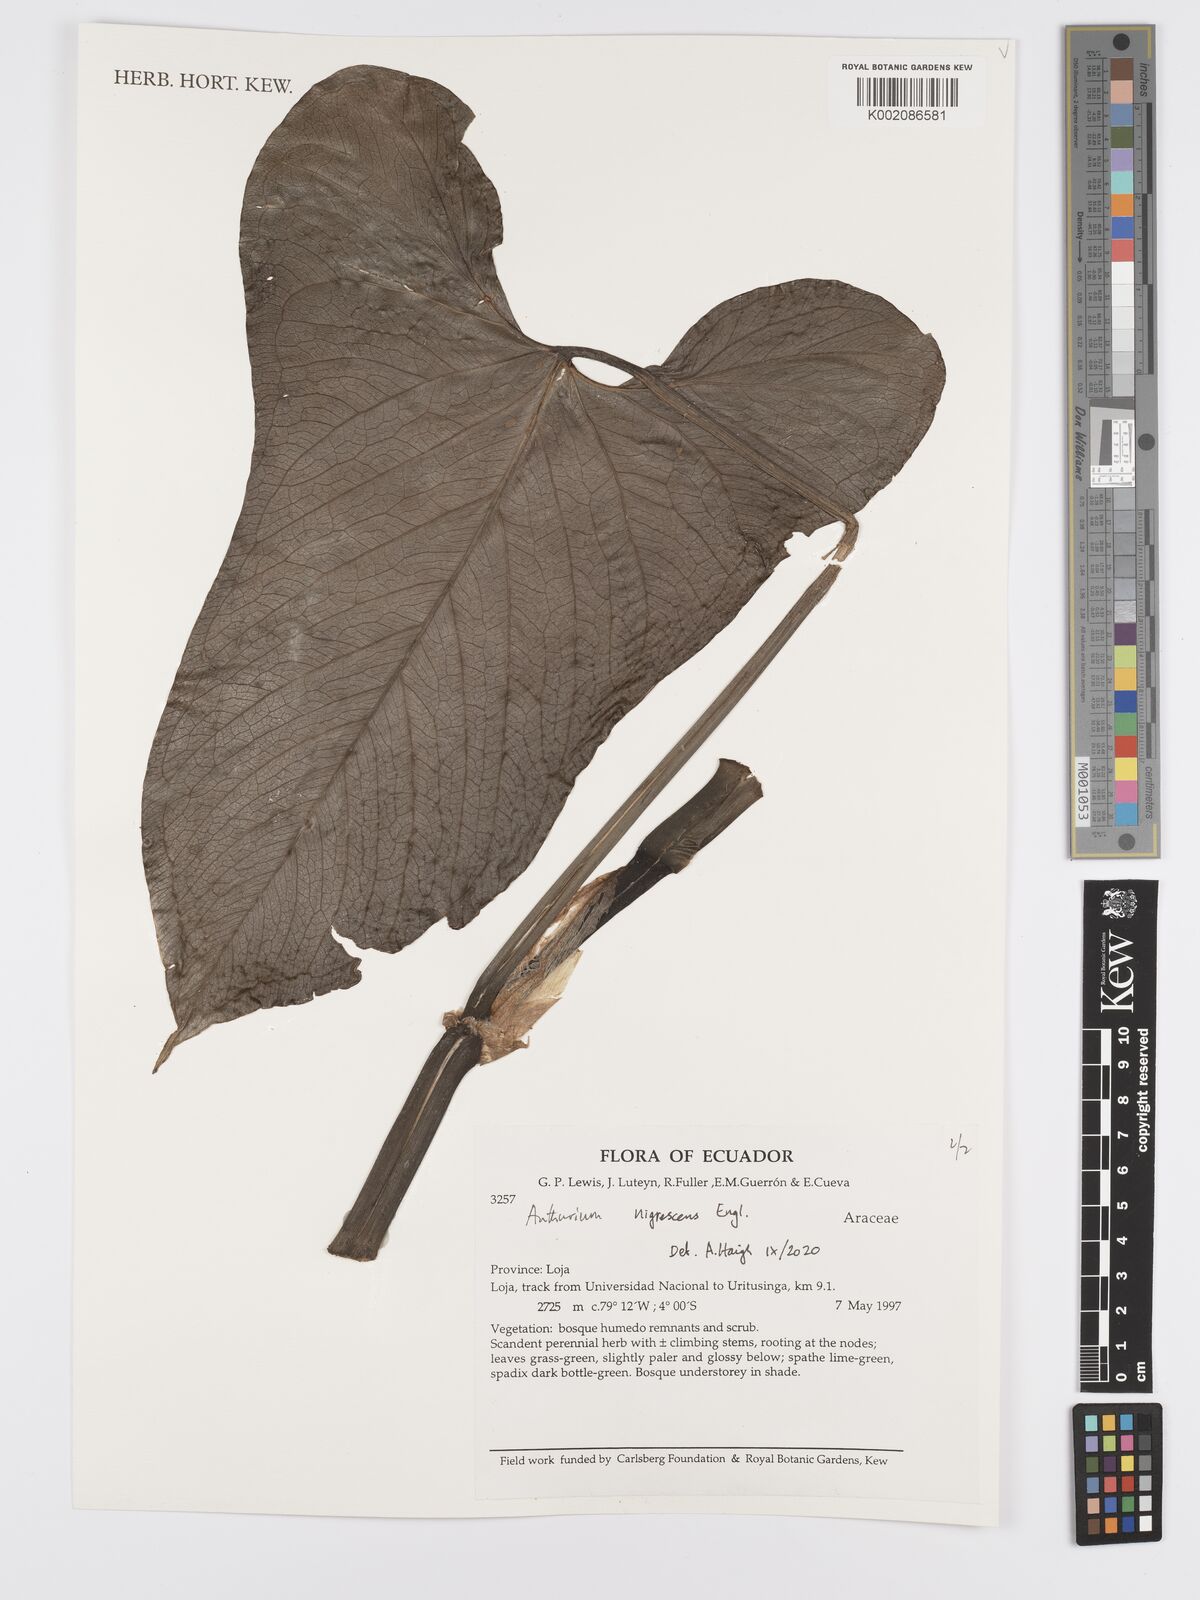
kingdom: Plantae
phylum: Tracheophyta
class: Liliopsida
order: Alismatales
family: Araceae
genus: Anthurium
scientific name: Anthurium nigrescens
